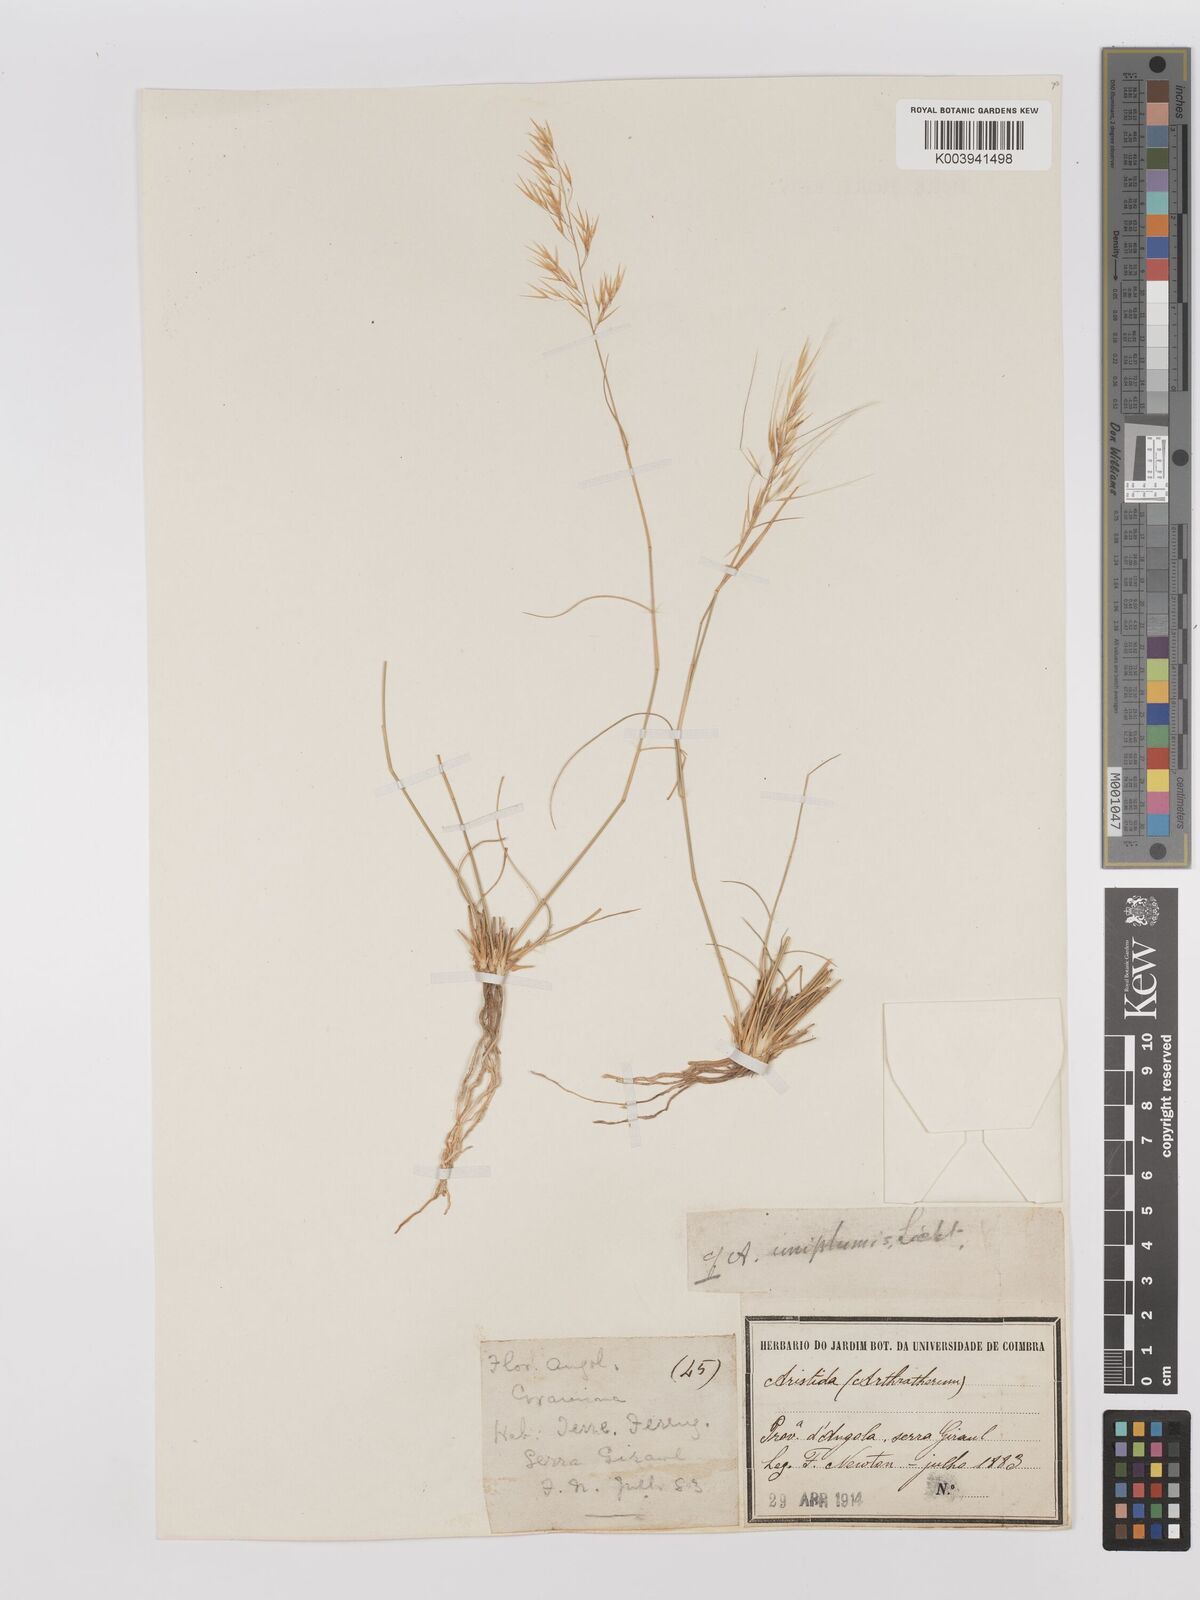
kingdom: Plantae
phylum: Tracheophyta
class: Liliopsida
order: Poales
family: Poaceae
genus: Stipagrostis
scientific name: Stipagrostis uniplumis
